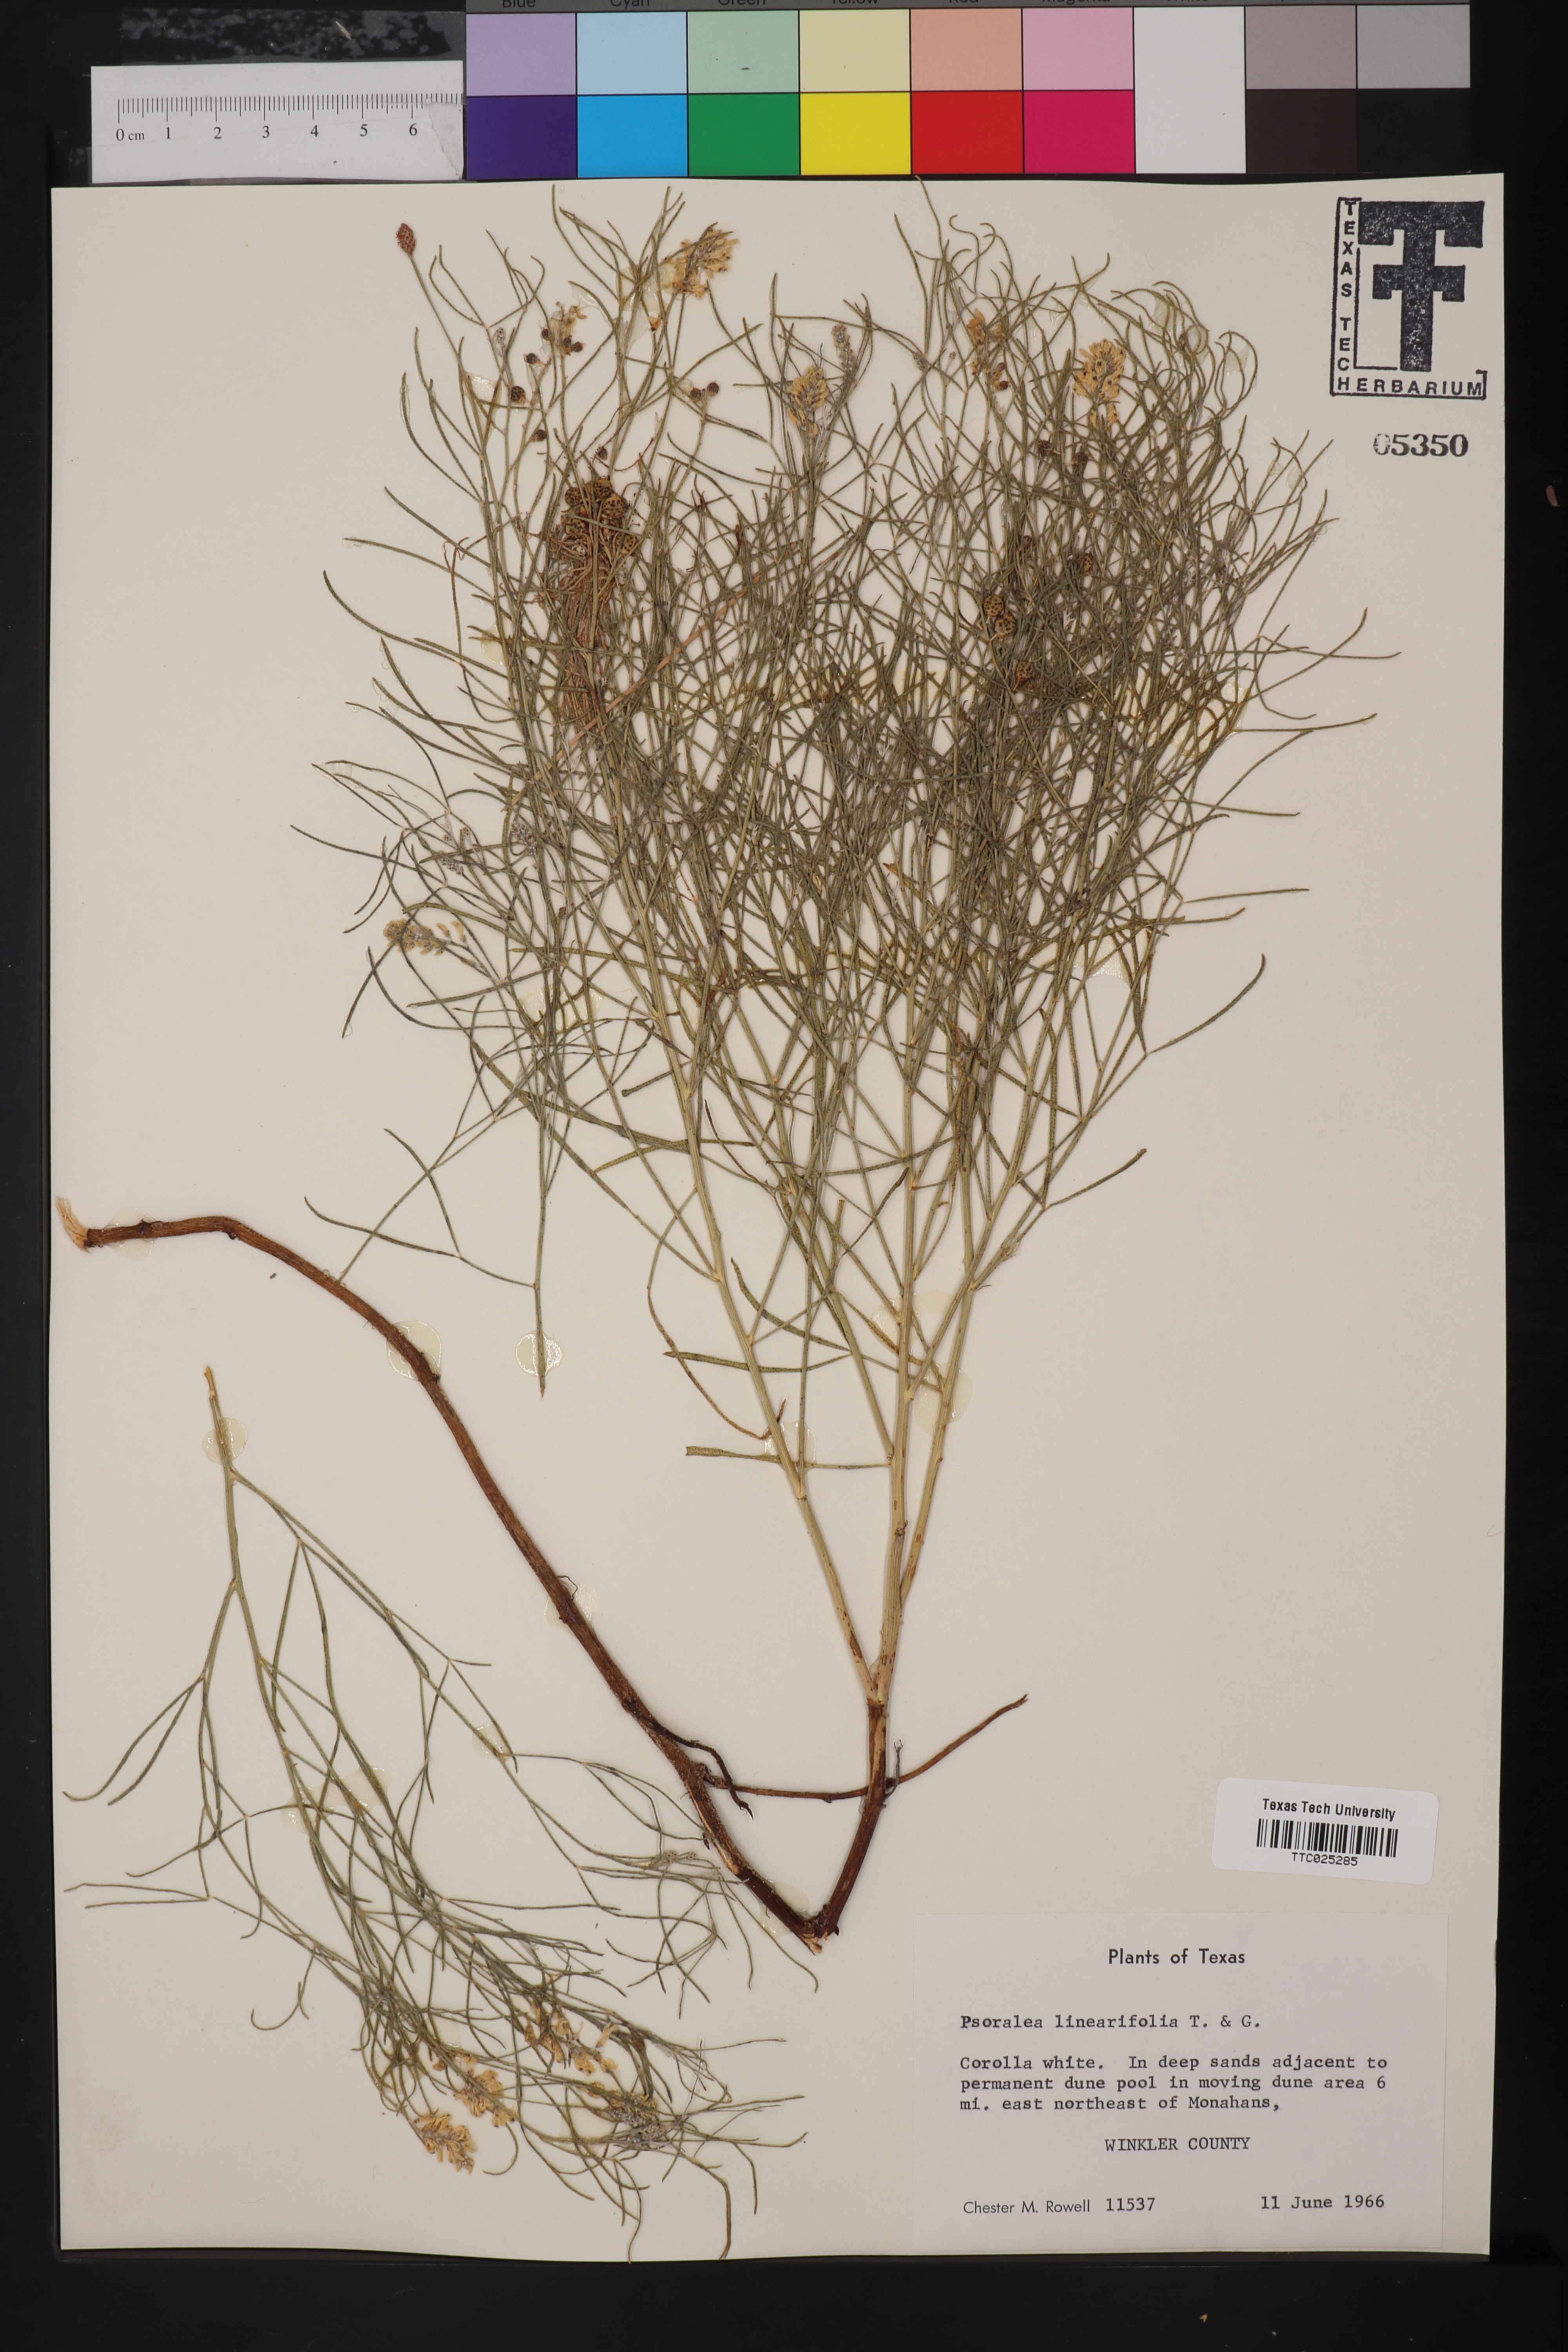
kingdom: Plantae
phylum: Tracheophyta
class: Magnoliopsida
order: Fabales
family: Fabaceae
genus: Pediomelum
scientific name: Pediomelum linearifolium
